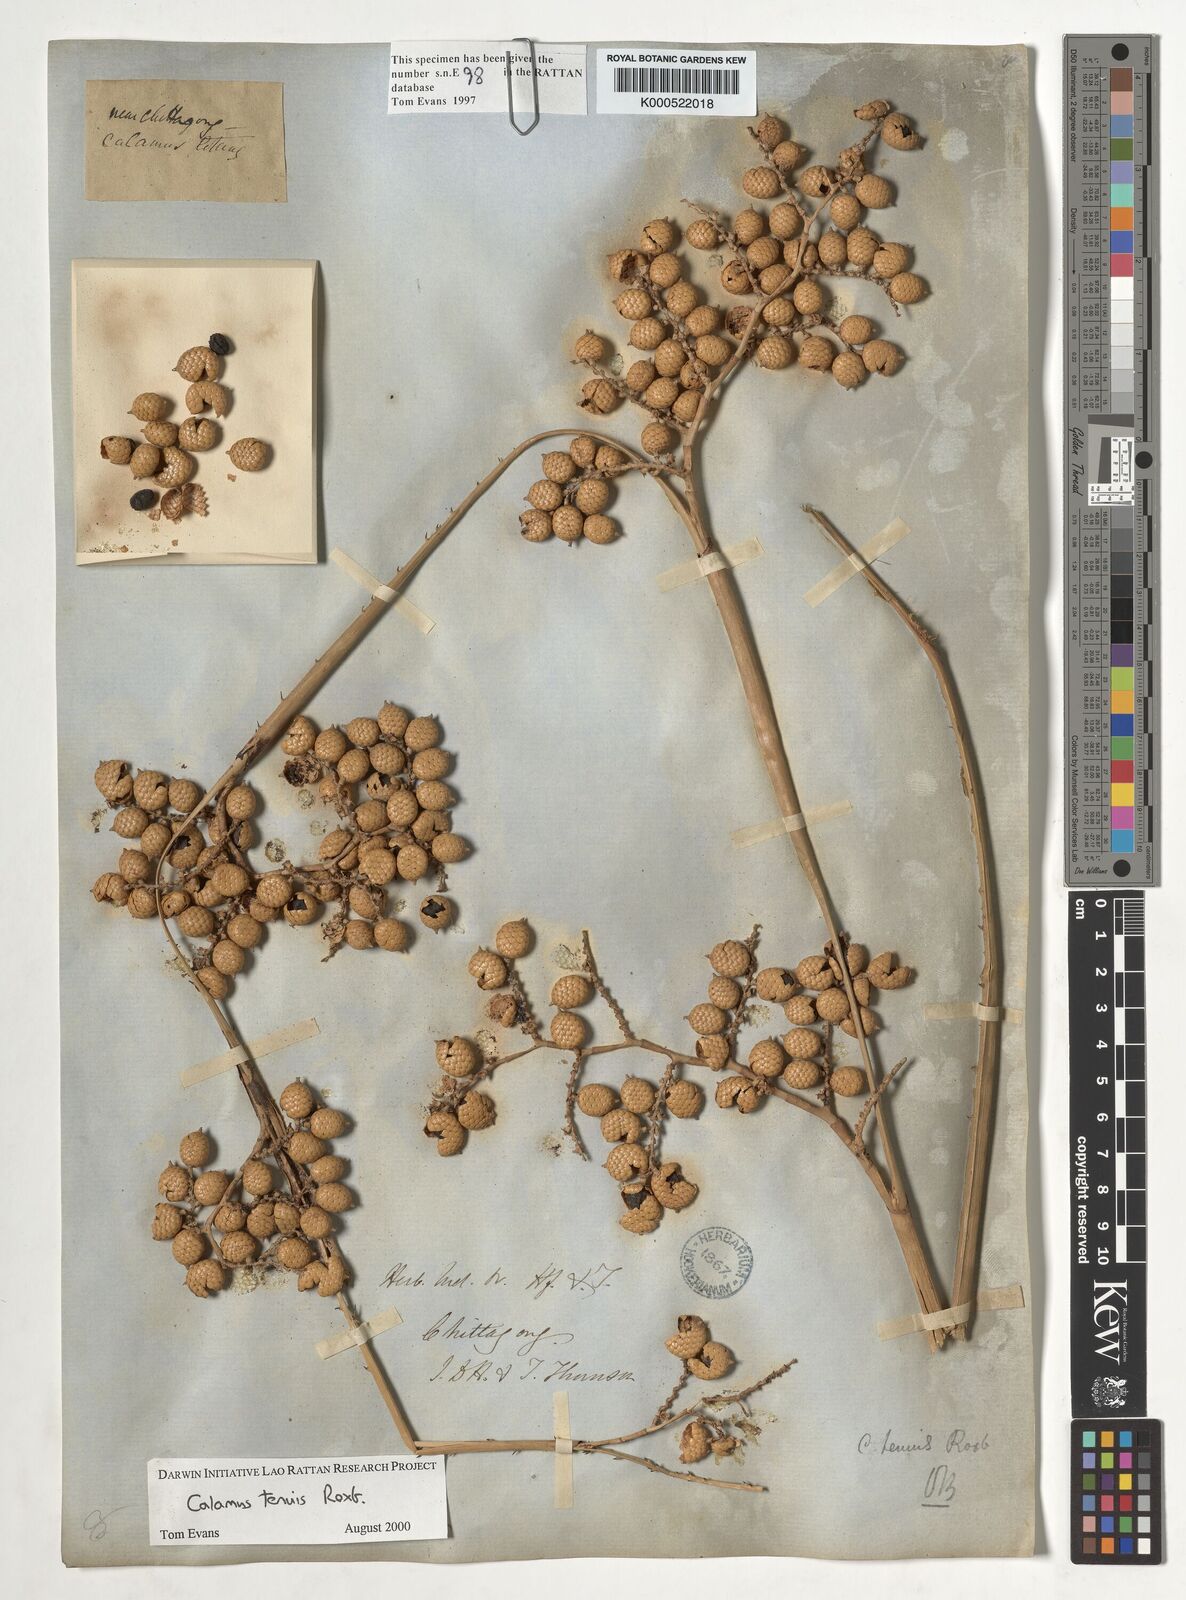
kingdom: Plantae
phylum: Tracheophyta
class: Liliopsida
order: Arecales
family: Arecaceae
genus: Calamus
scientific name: Calamus tenuis
